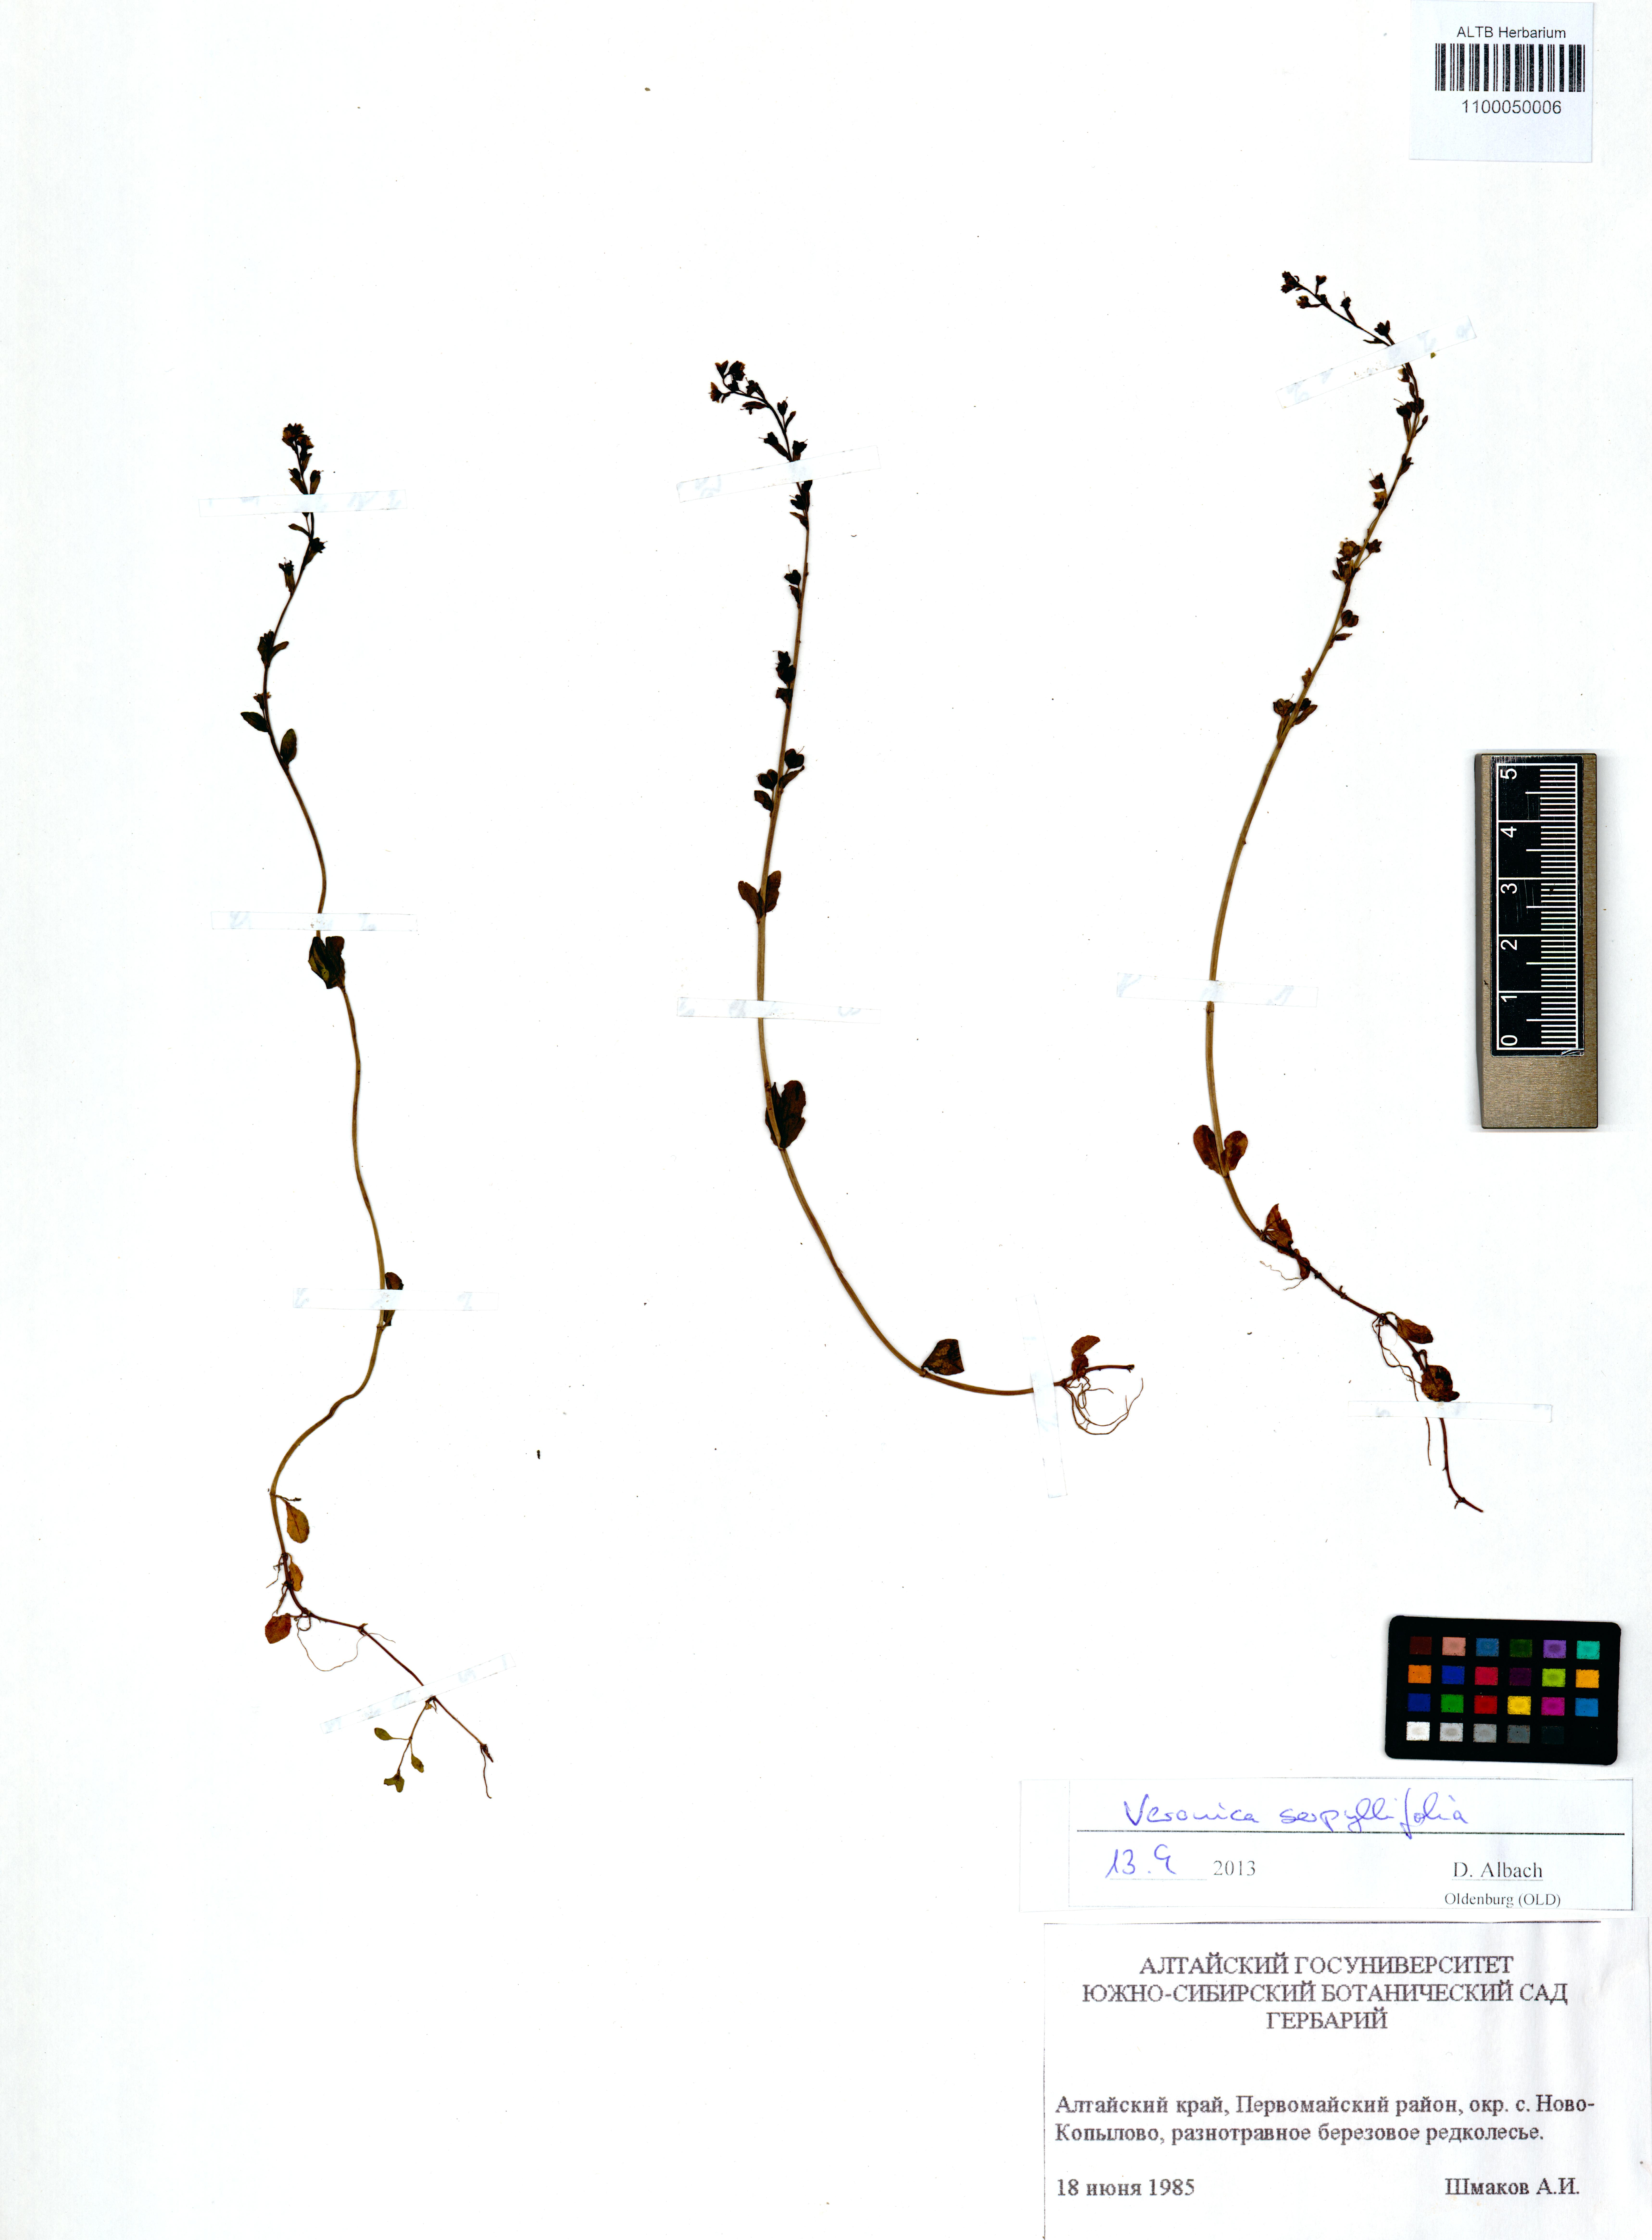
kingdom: Plantae
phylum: Tracheophyta
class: Magnoliopsida
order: Lamiales
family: Plantaginaceae
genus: Veronica
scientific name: Veronica serpyllifolia
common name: Thyme-leaved speedwell
